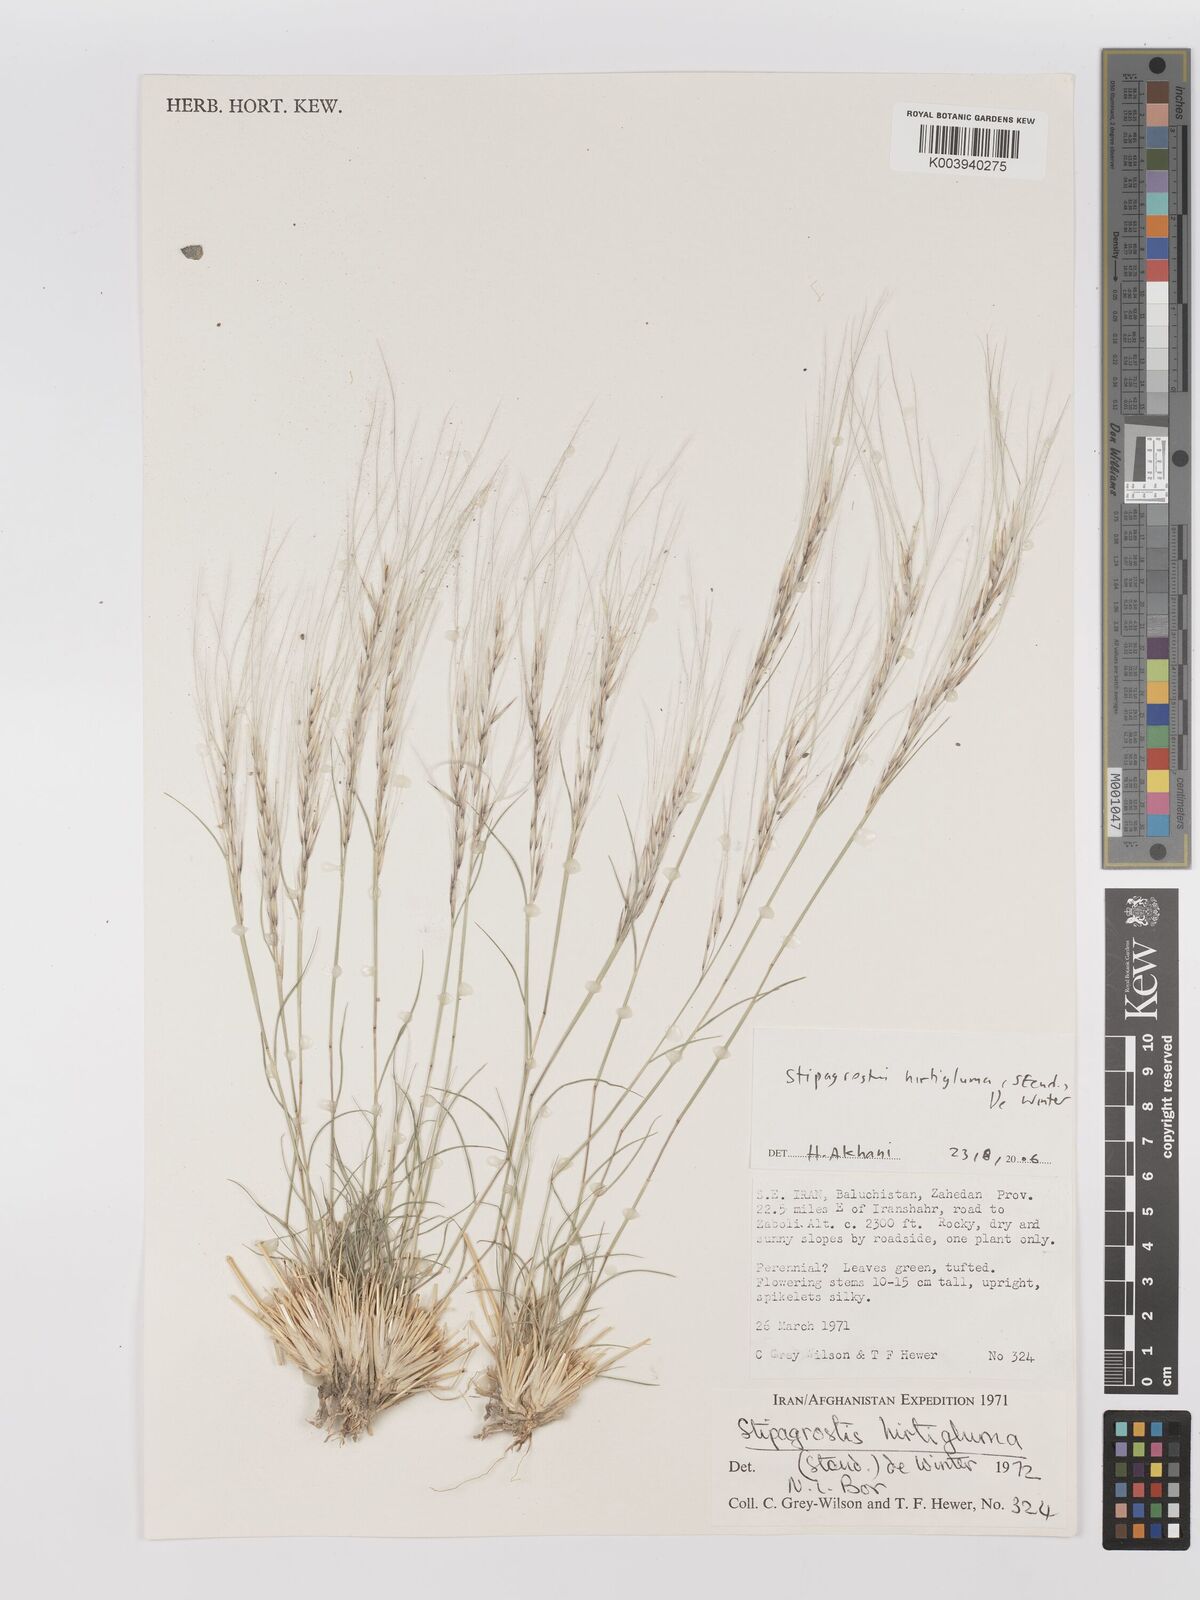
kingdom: Plantae
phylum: Tracheophyta
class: Liliopsida
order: Poales
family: Poaceae
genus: Stipagrostis
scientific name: Stipagrostis hirtigluma
